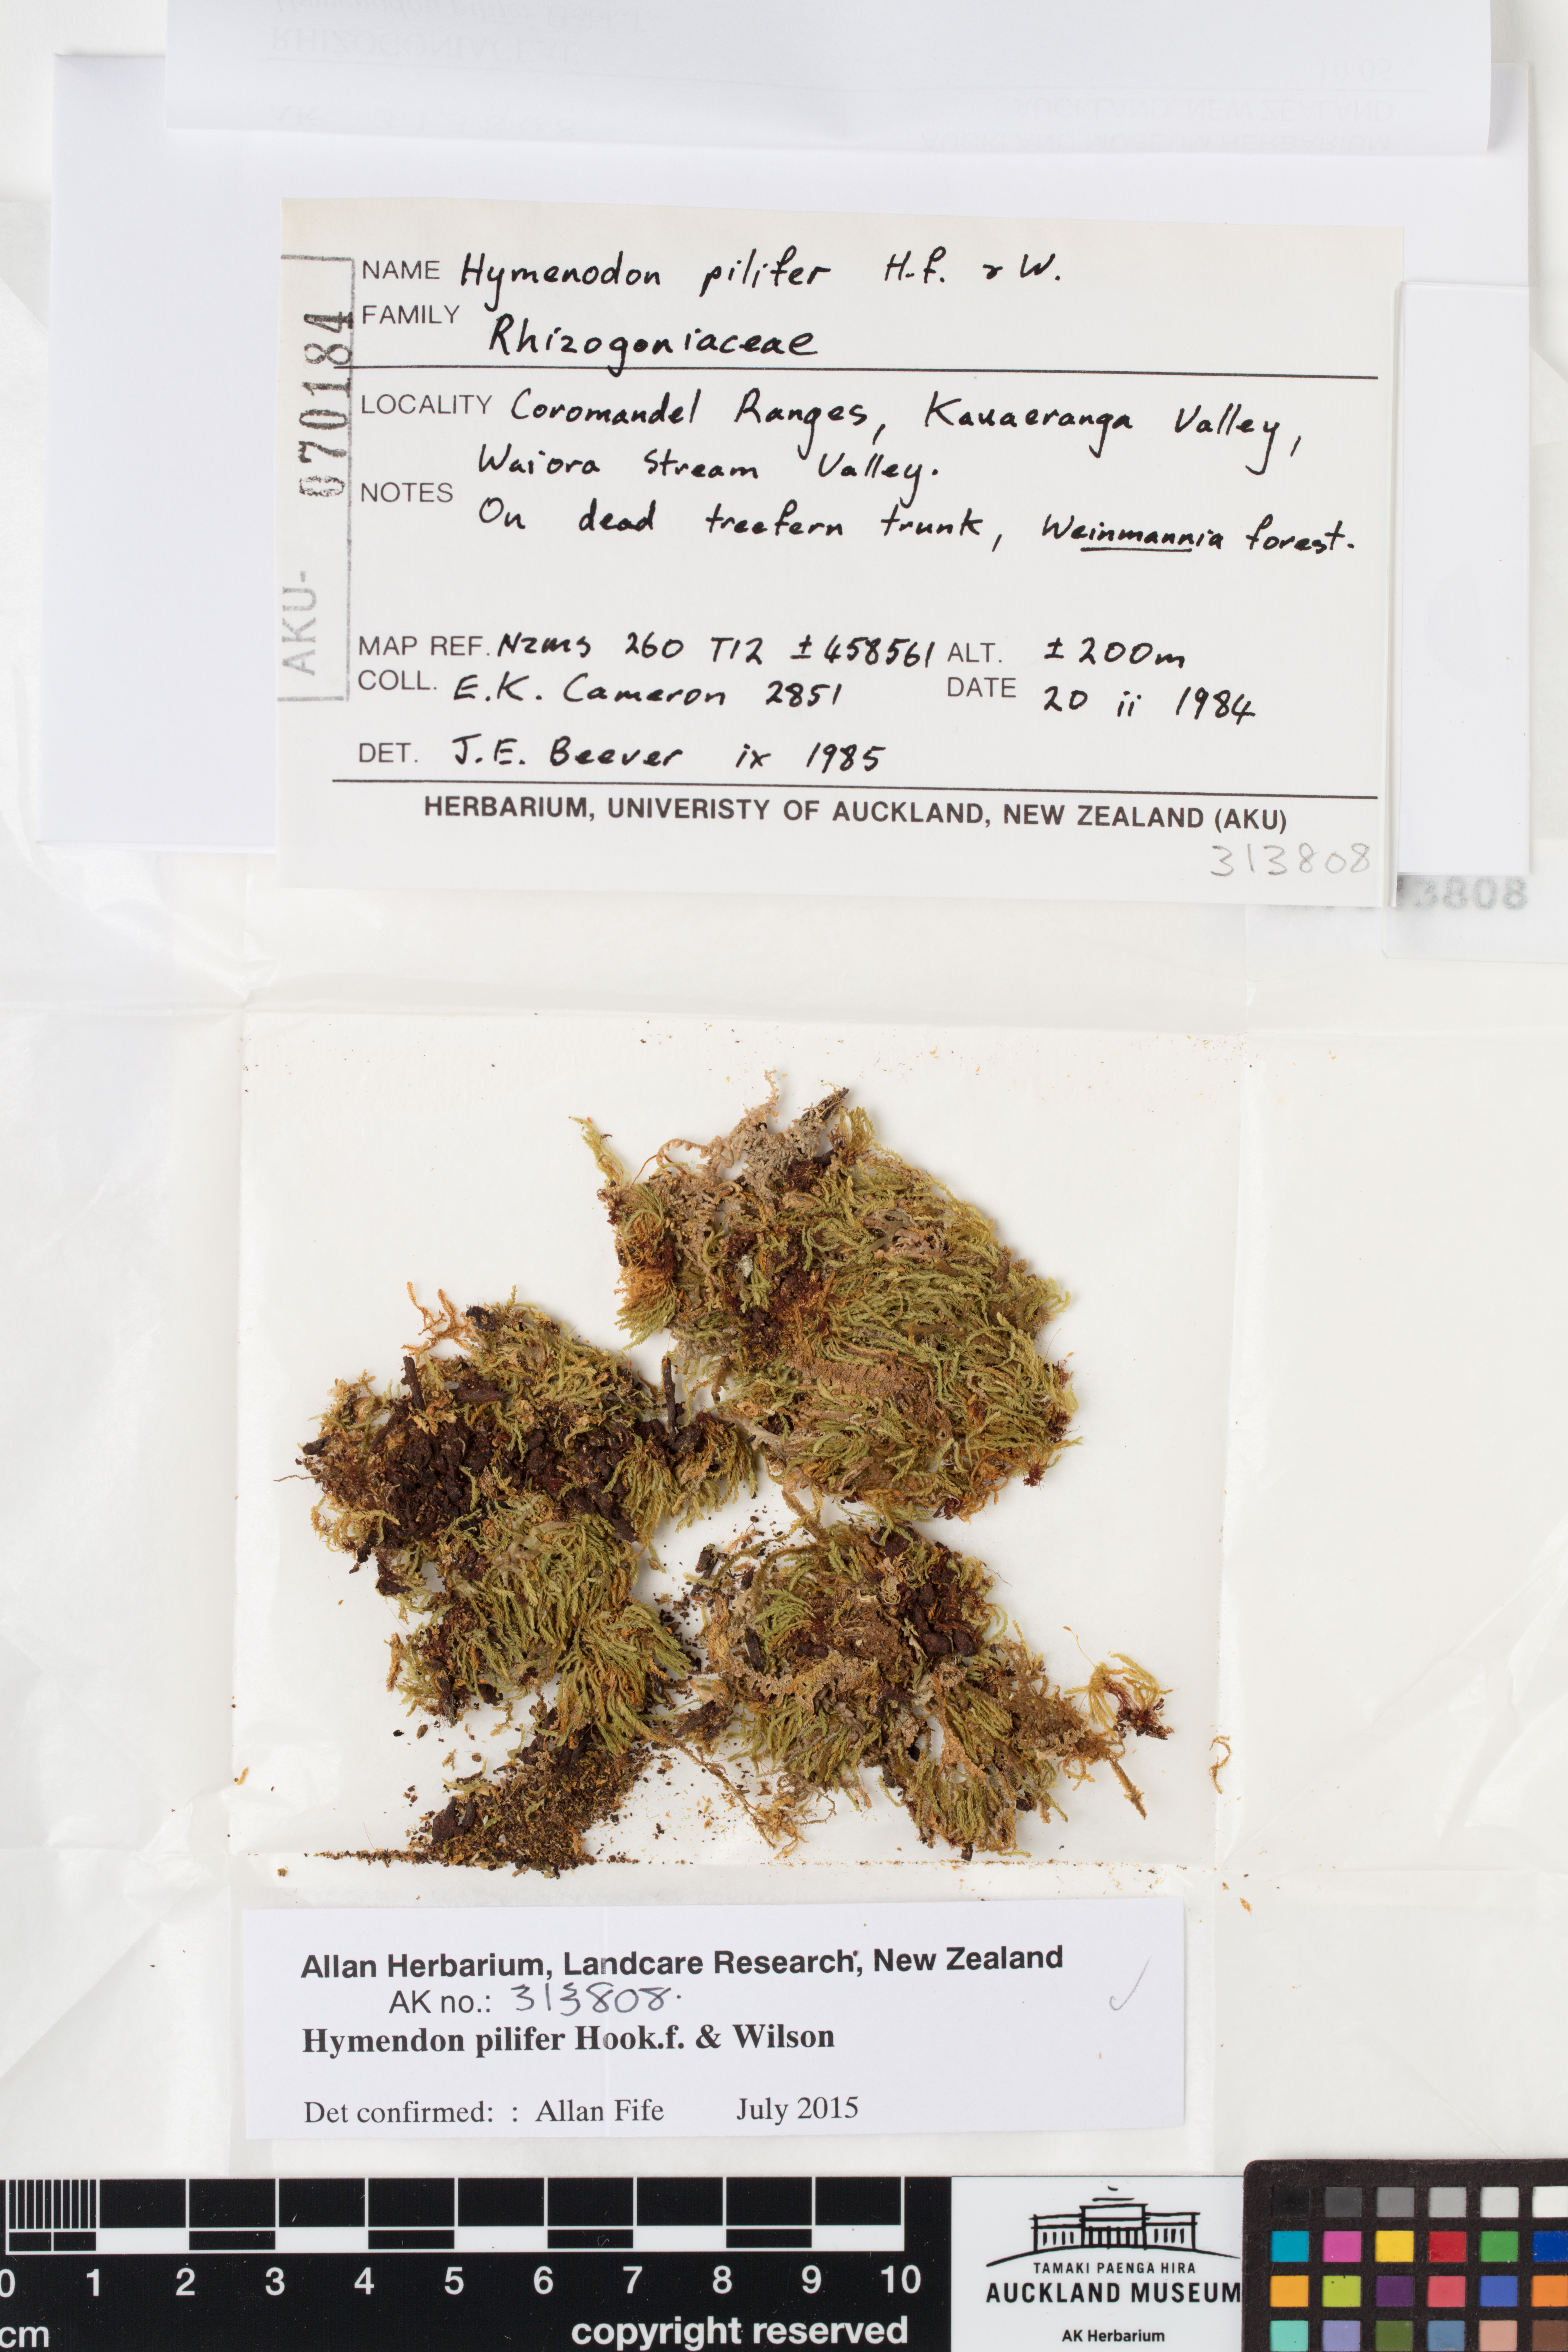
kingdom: Plantae
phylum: Bryophyta
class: Bryopsida
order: Orthodontiales
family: Orthodontiaceae
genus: Hymenodon
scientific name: Hymenodon pilifer
